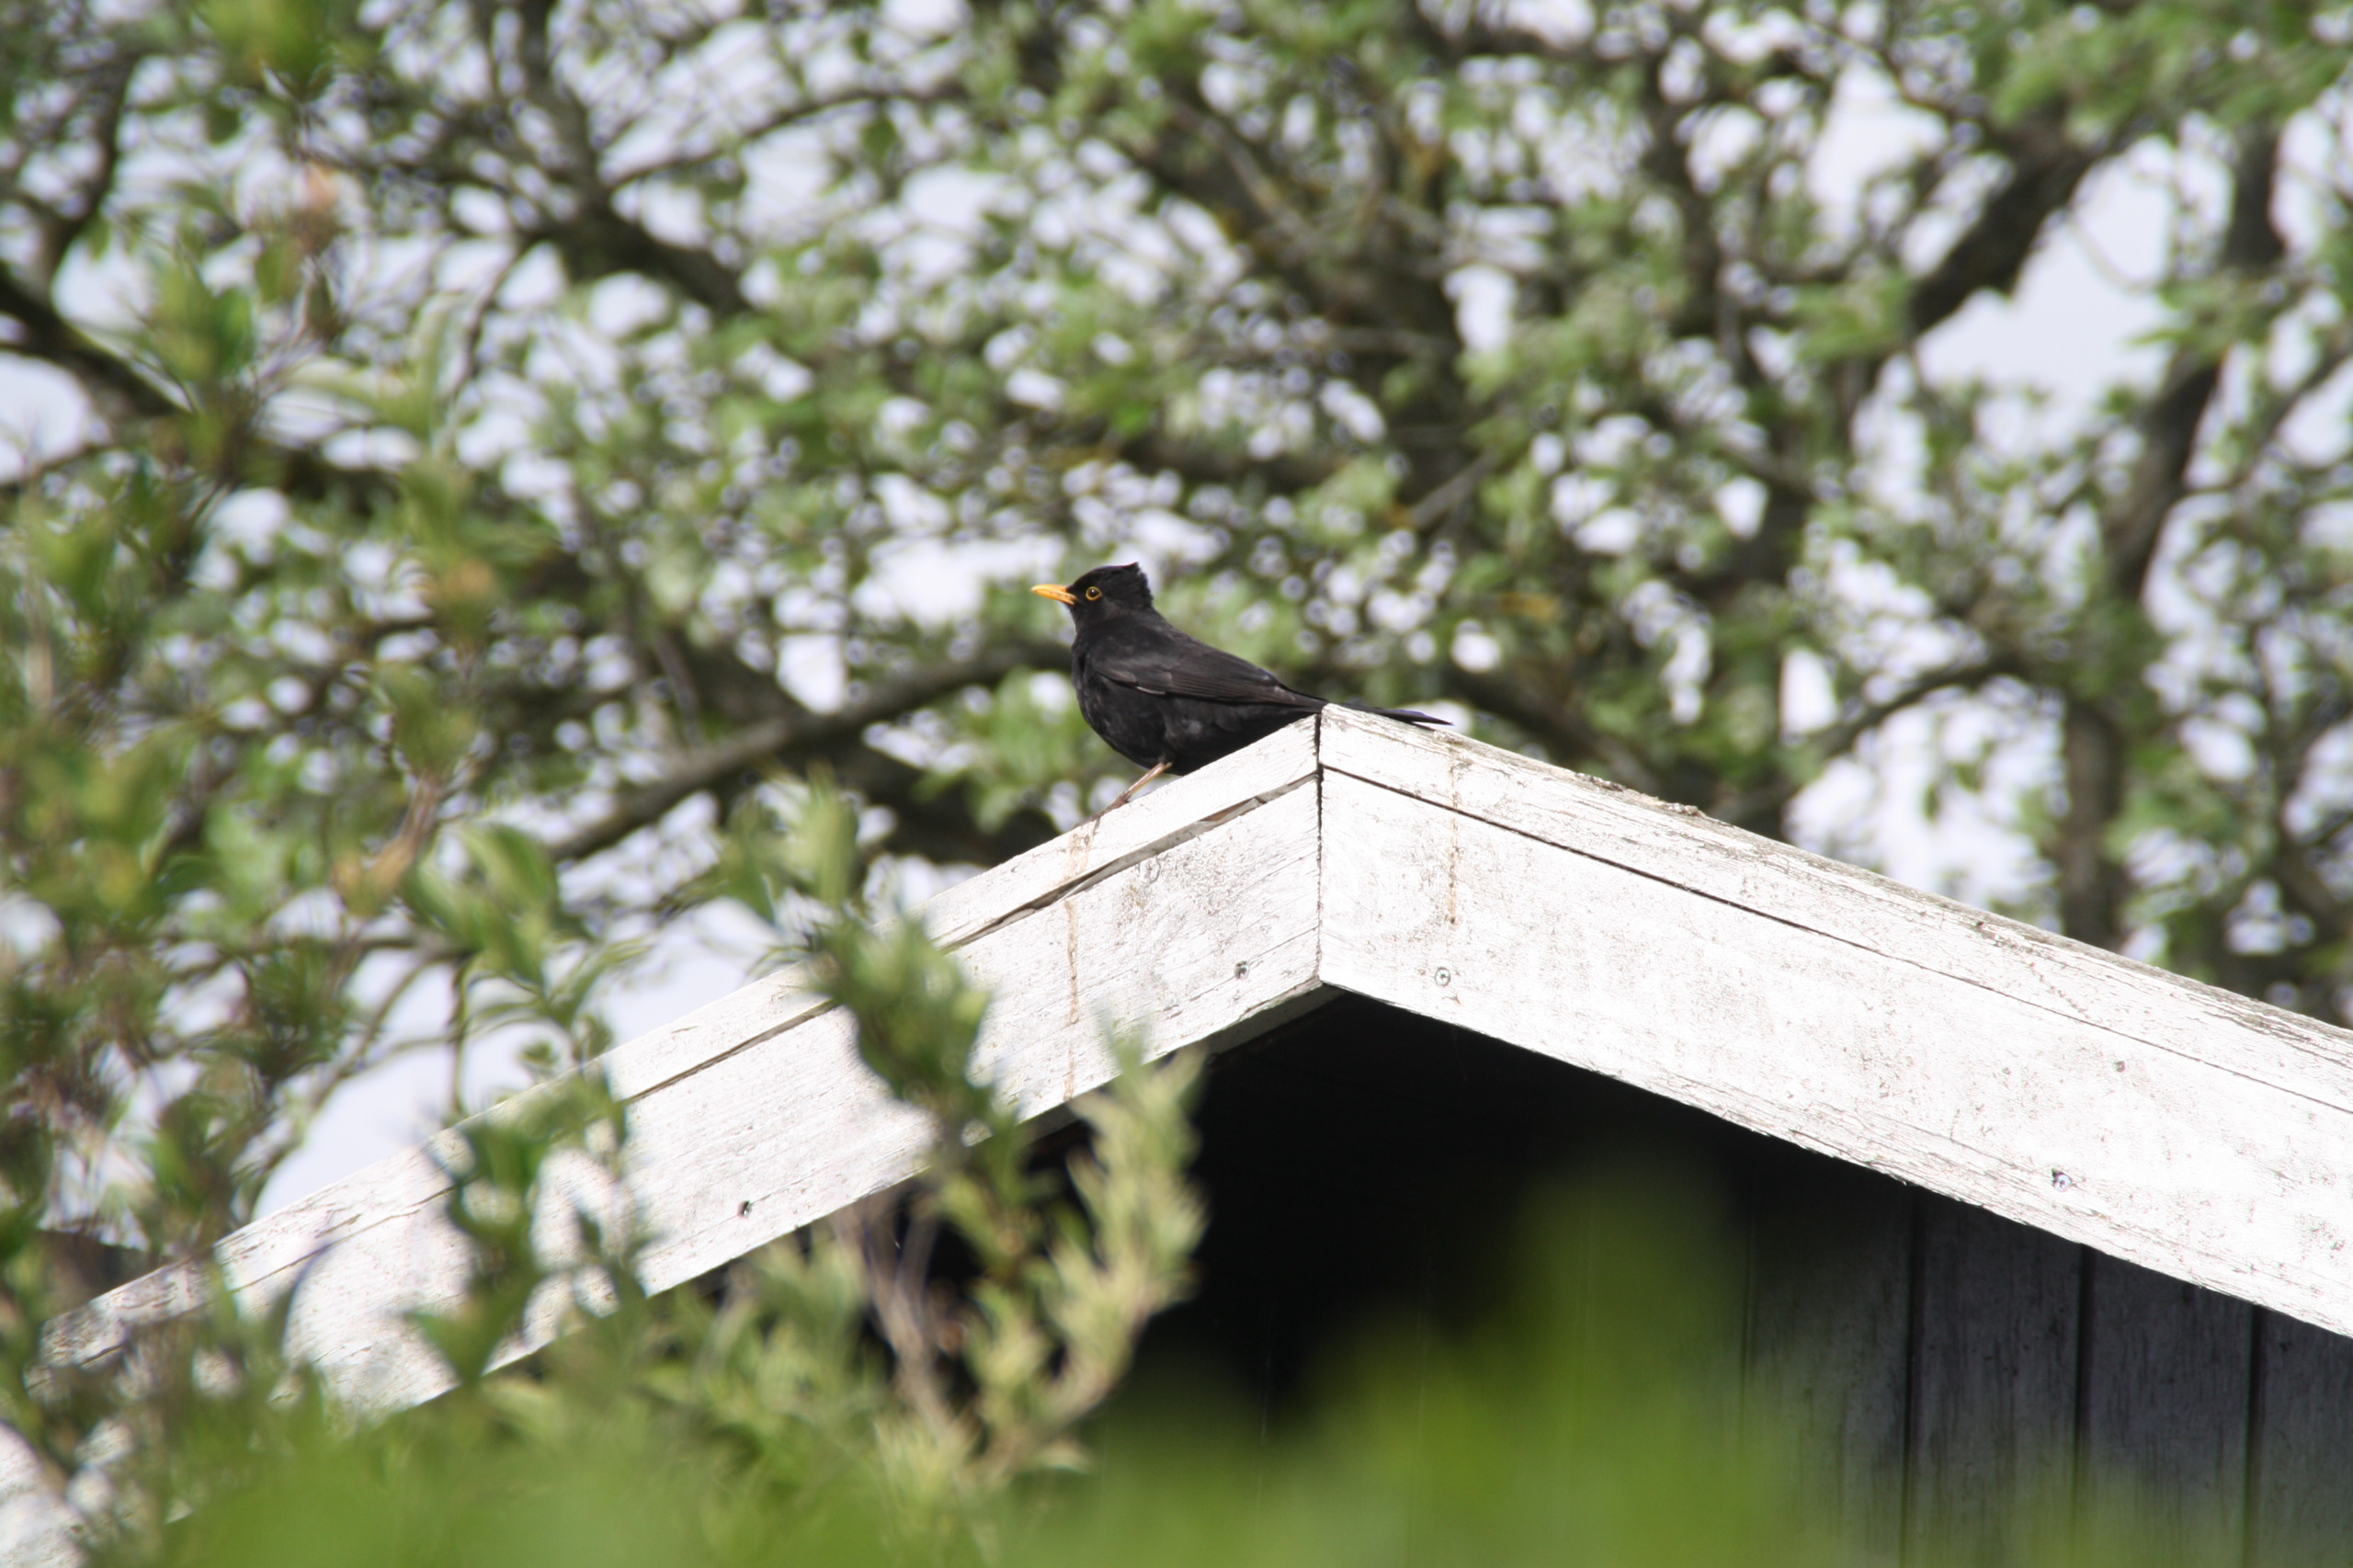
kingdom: Animalia
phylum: Chordata
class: Aves
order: Passeriformes
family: Turdidae
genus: Turdus
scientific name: Turdus merula
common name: Solsort
